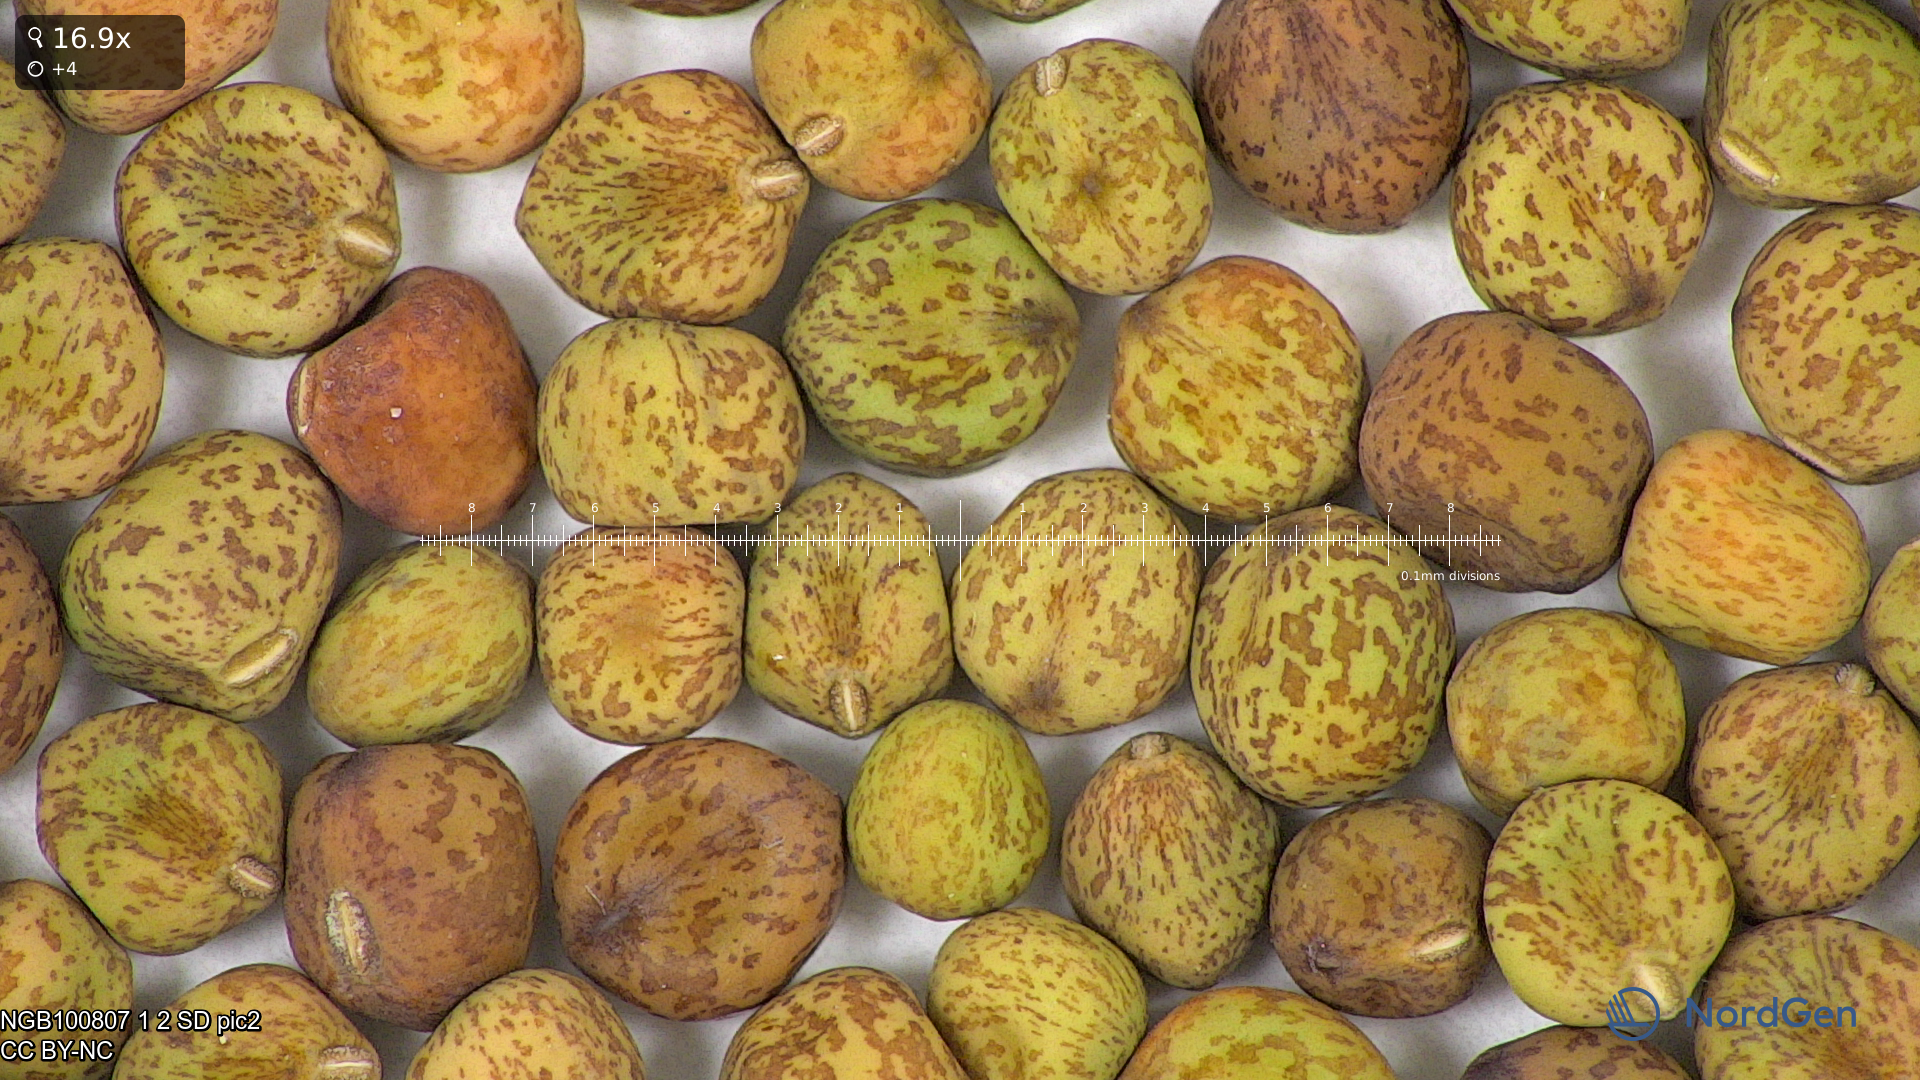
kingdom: Plantae
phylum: Tracheophyta
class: Magnoliopsida
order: Fabales
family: Fabaceae
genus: Lathyrus
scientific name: Lathyrus oleraceus
